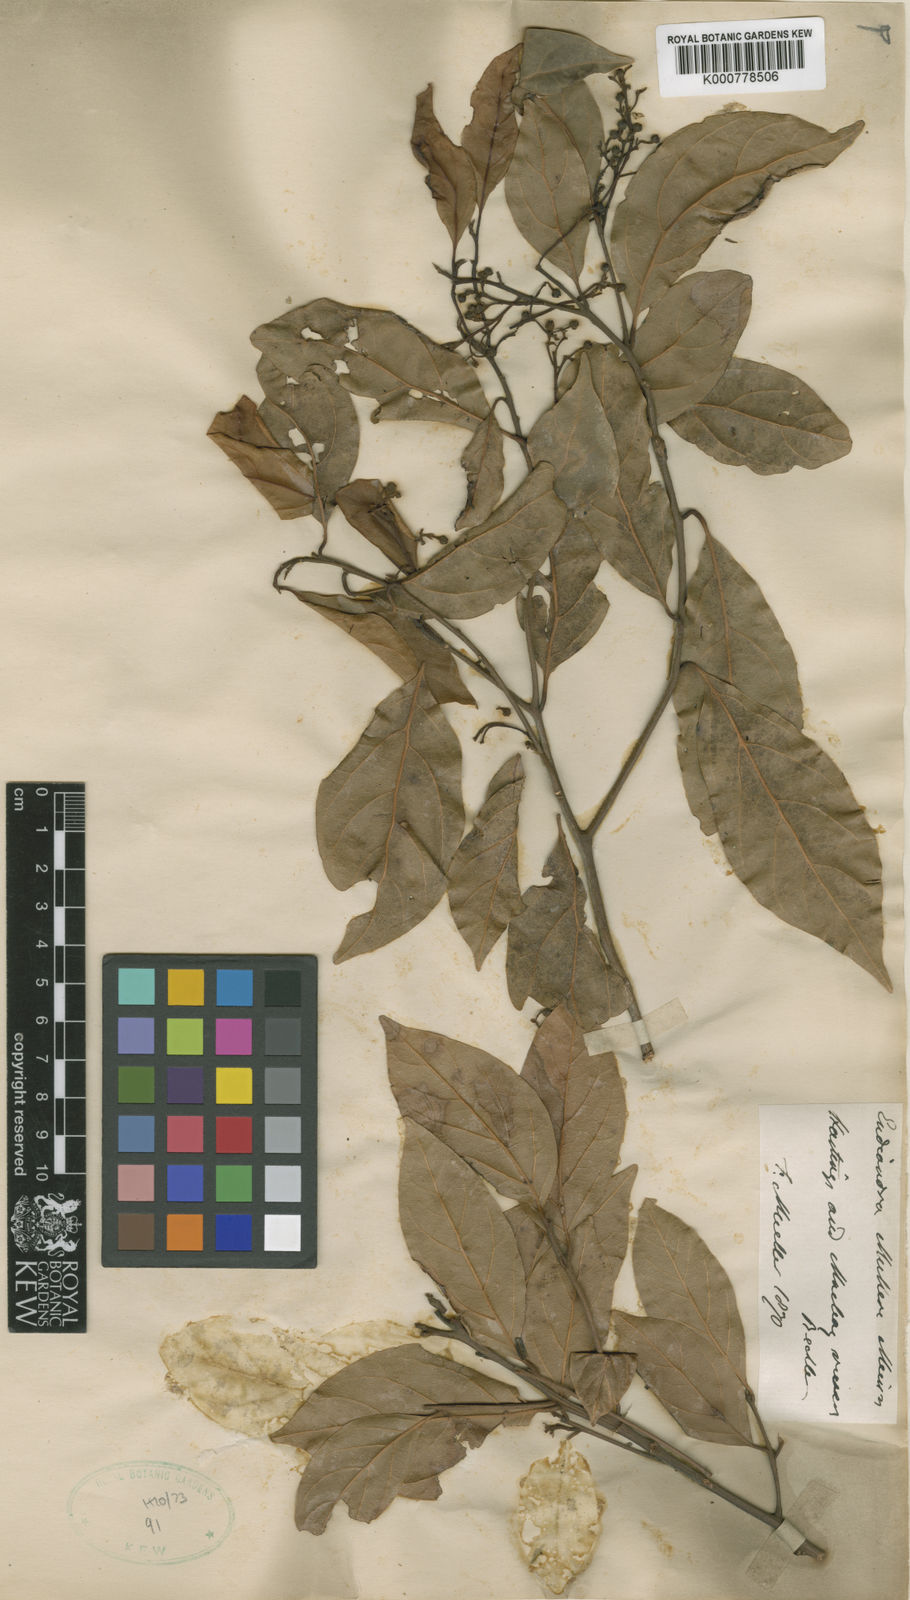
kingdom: Plantae
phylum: Tracheophyta
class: Magnoliopsida
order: Laurales
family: Lauraceae
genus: Endiandra
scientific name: Endiandra muelleri
